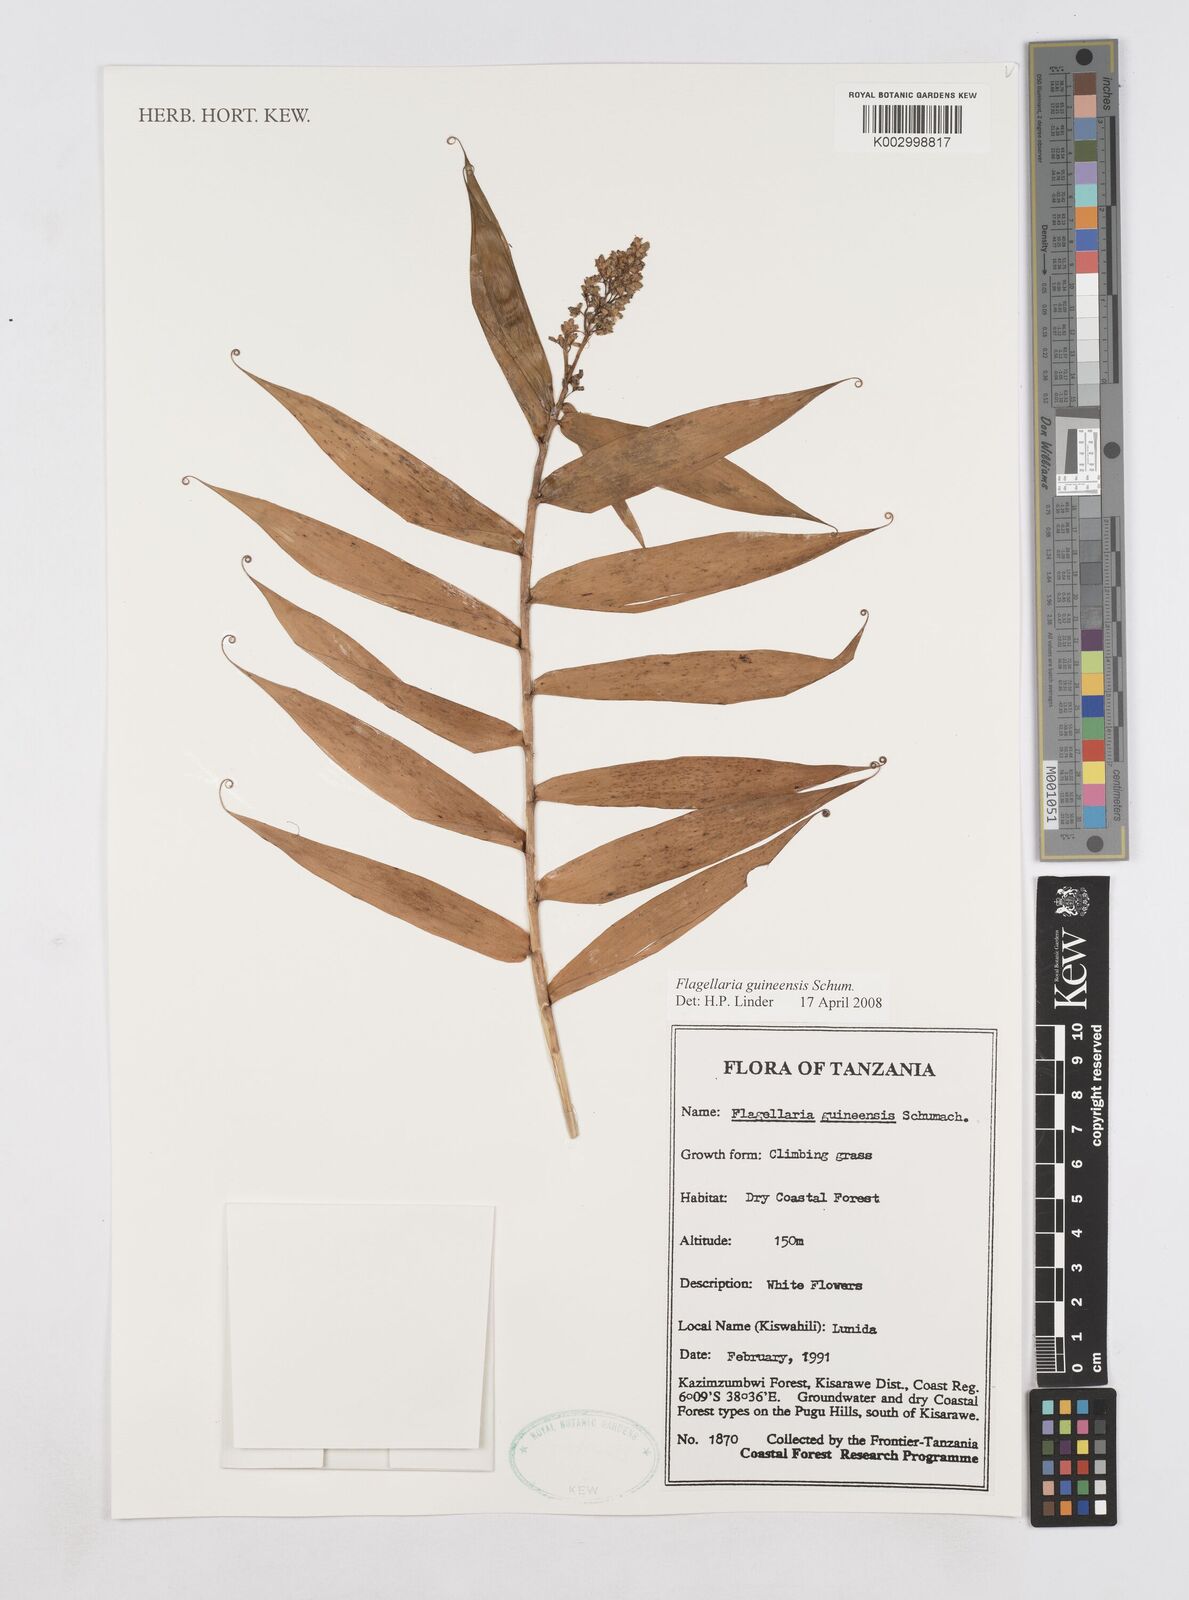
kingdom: Plantae
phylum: Tracheophyta
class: Liliopsida
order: Poales
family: Flagellariaceae
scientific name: Flagellariaceae
